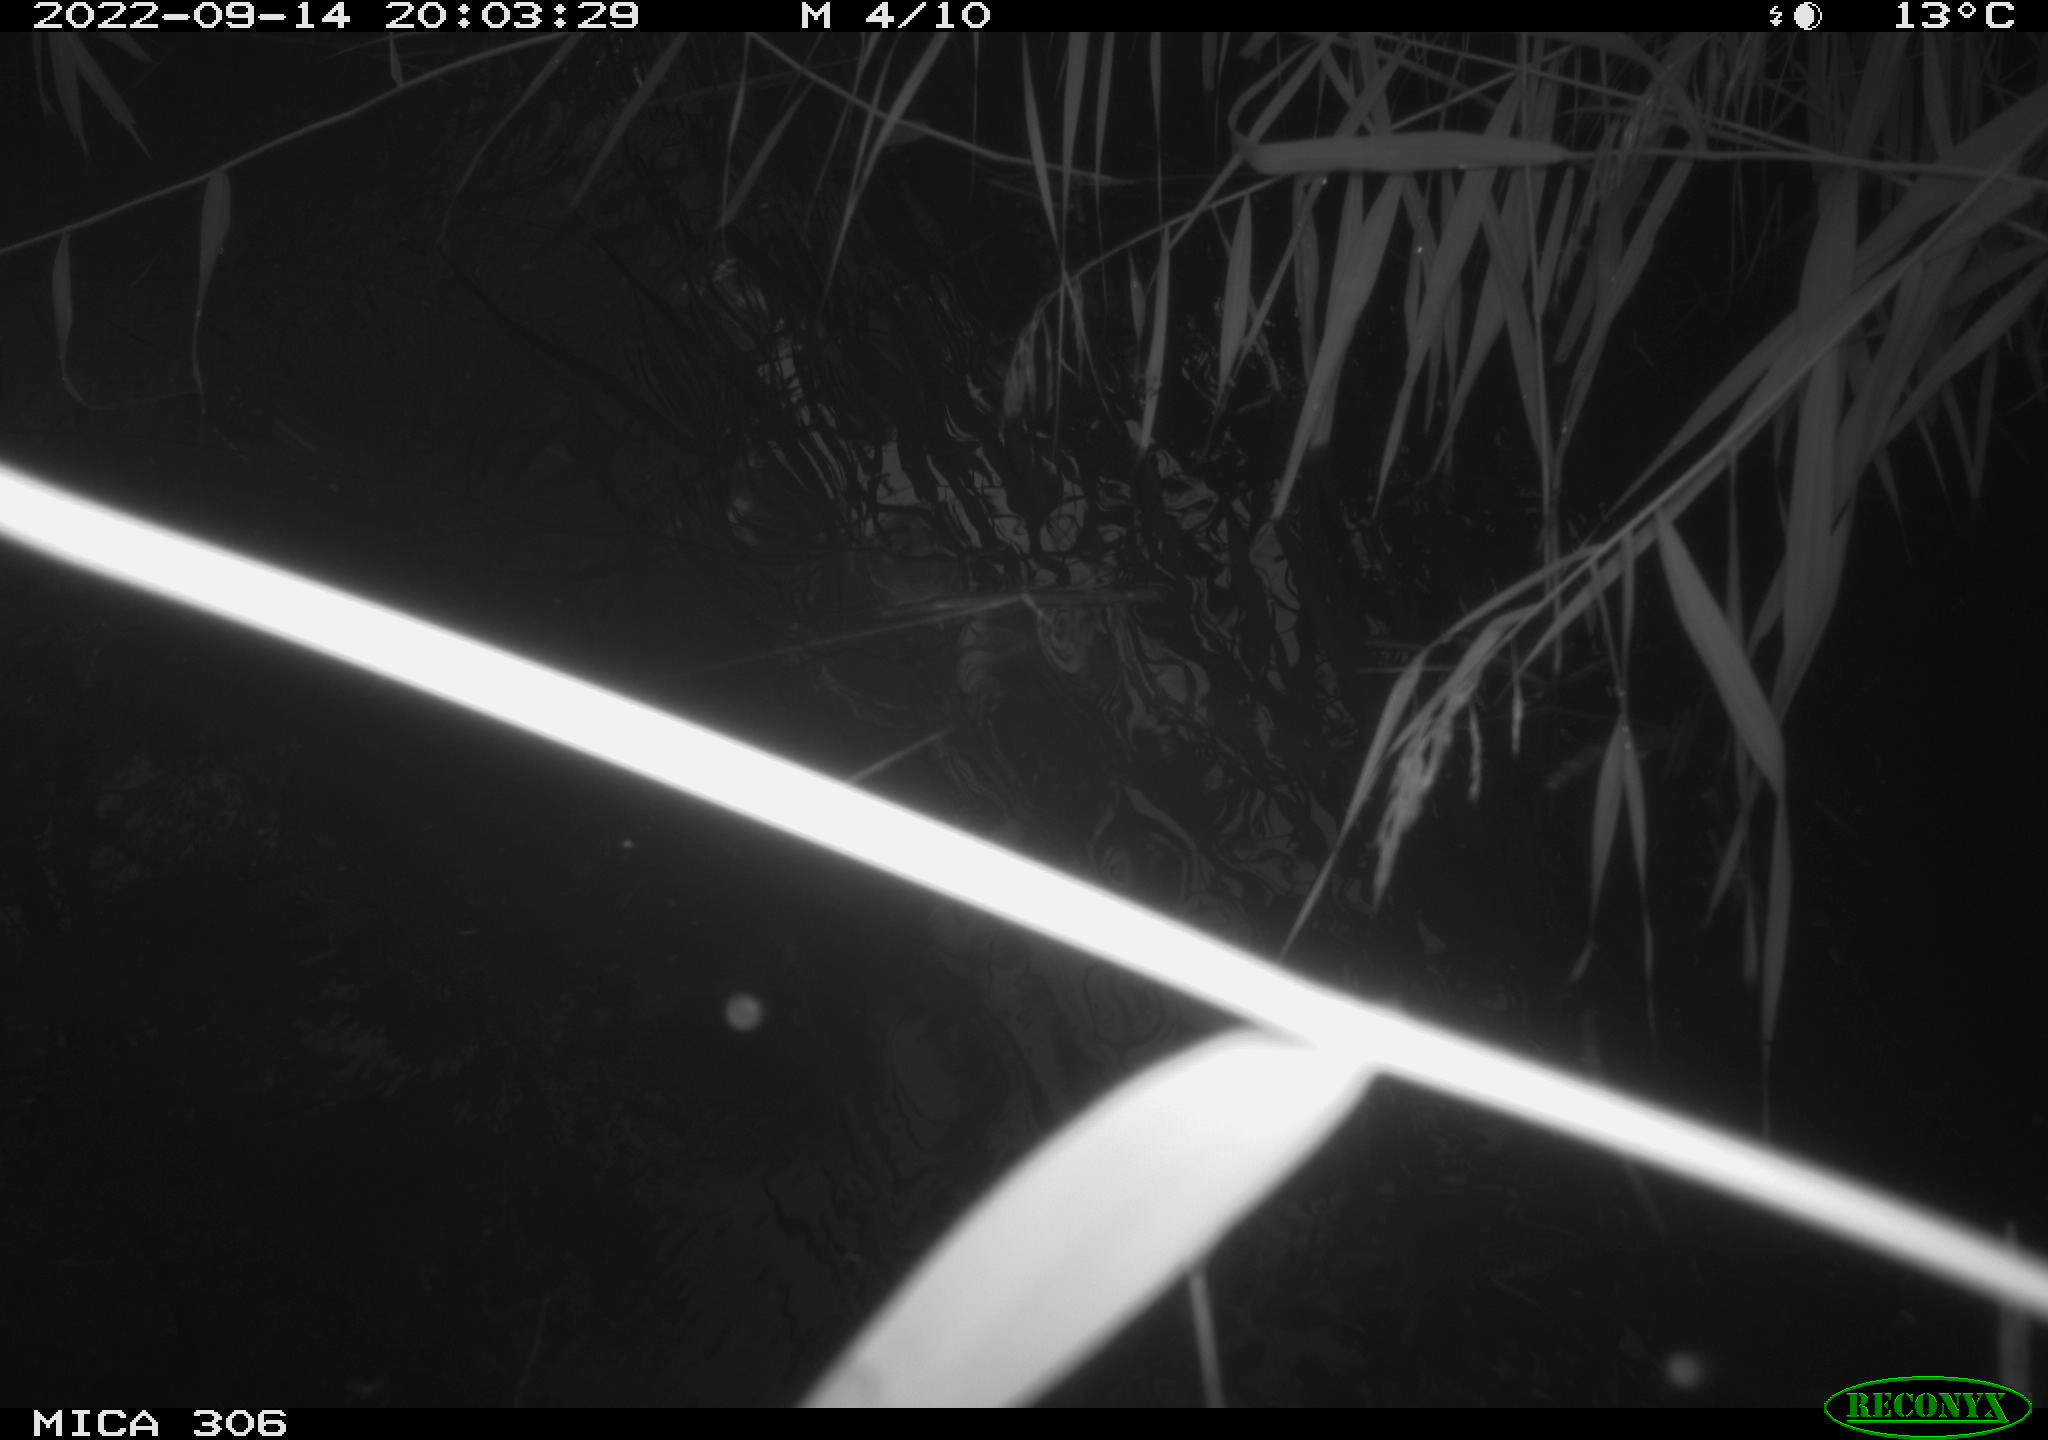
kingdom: Animalia
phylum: Chordata
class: Mammalia
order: Rodentia
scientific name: Rodentia
